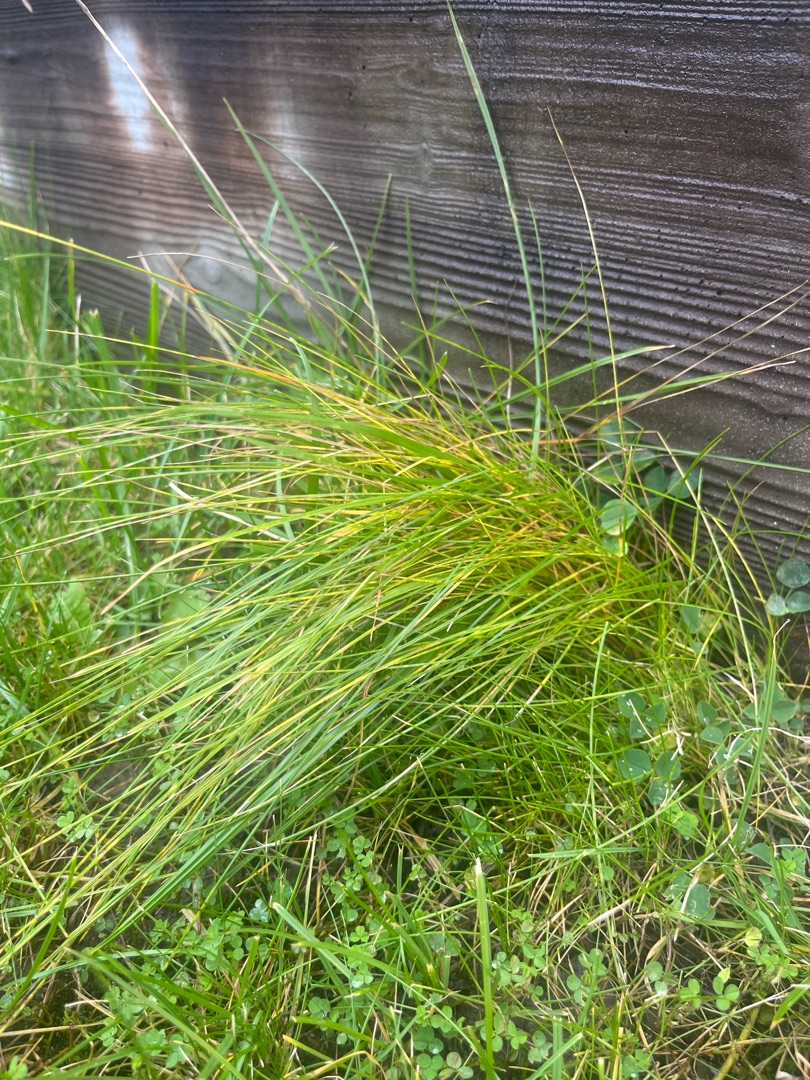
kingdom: Plantae
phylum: Tracheophyta
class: Liliopsida
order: Poales
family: Poaceae
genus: Lolium
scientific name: Lolium perenne
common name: Almindelig rajgræs
